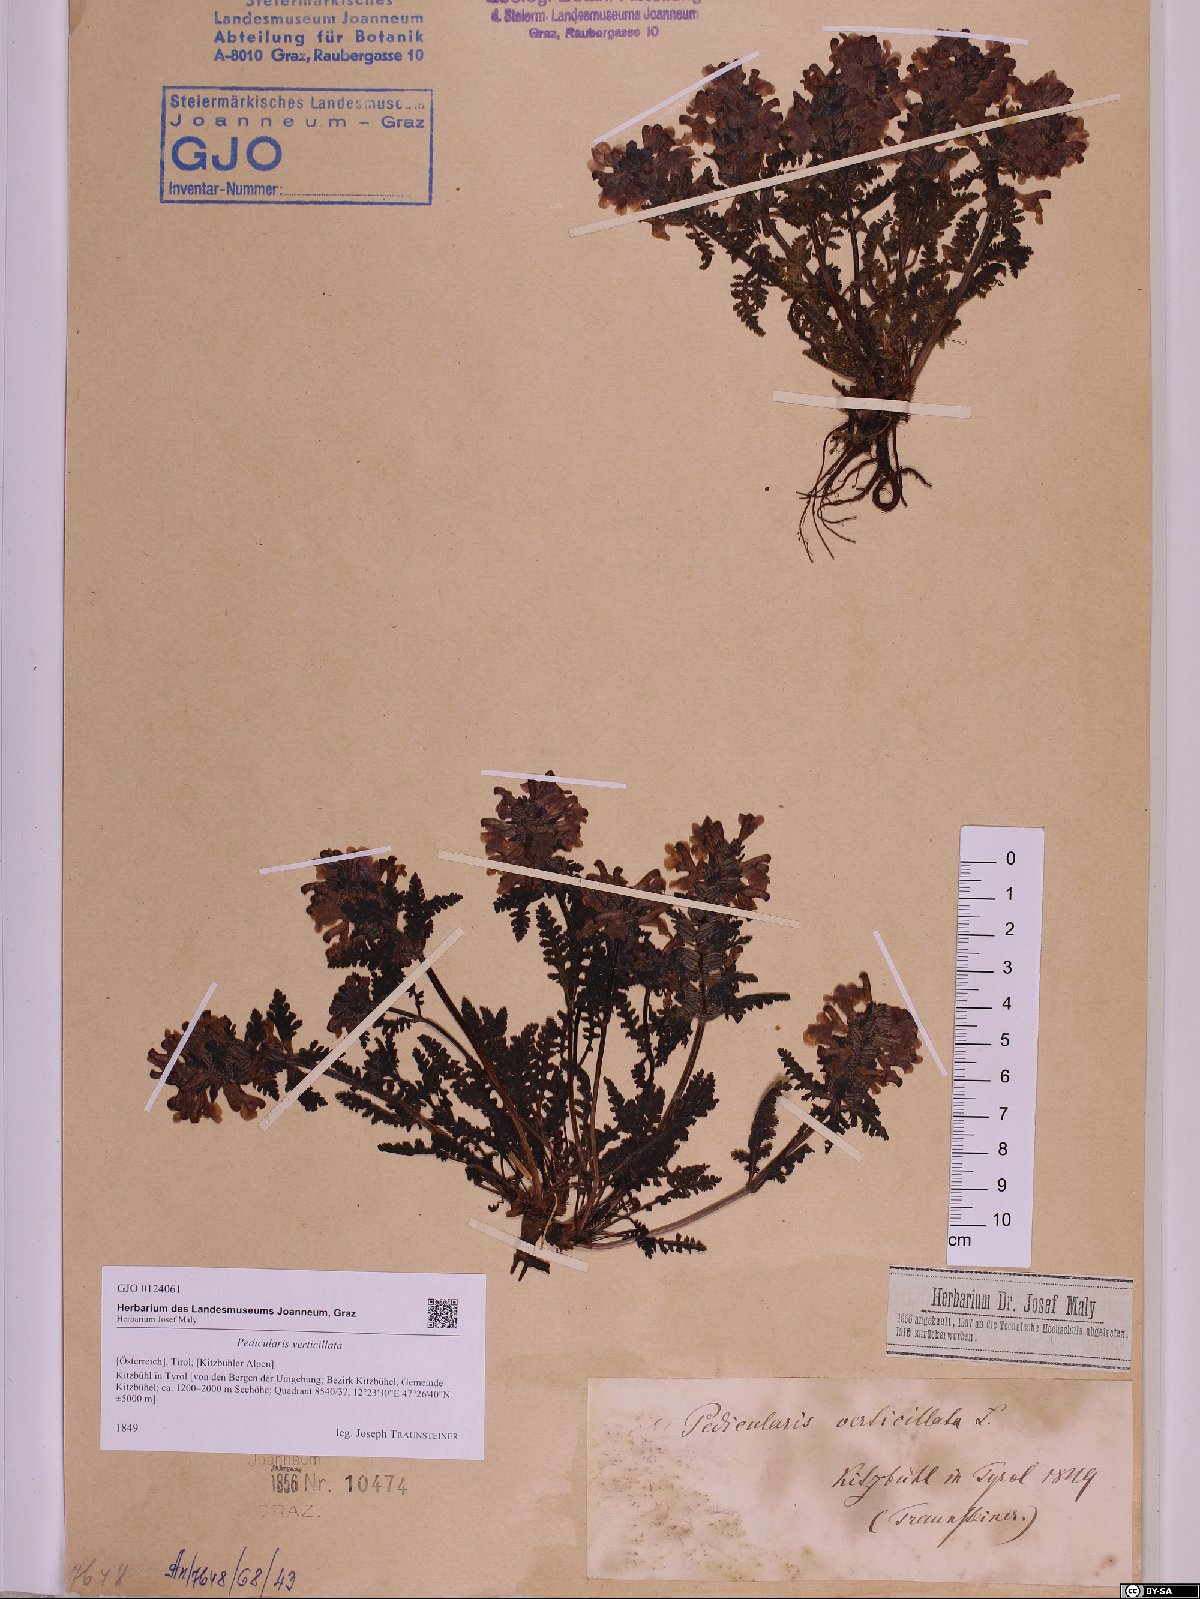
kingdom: Plantae
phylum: Tracheophyta
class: Magnoliopsida
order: Lamiales
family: Orobanchaceae
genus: Pedicularis
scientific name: Pedicularis verticillata
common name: Whorled lousewort
